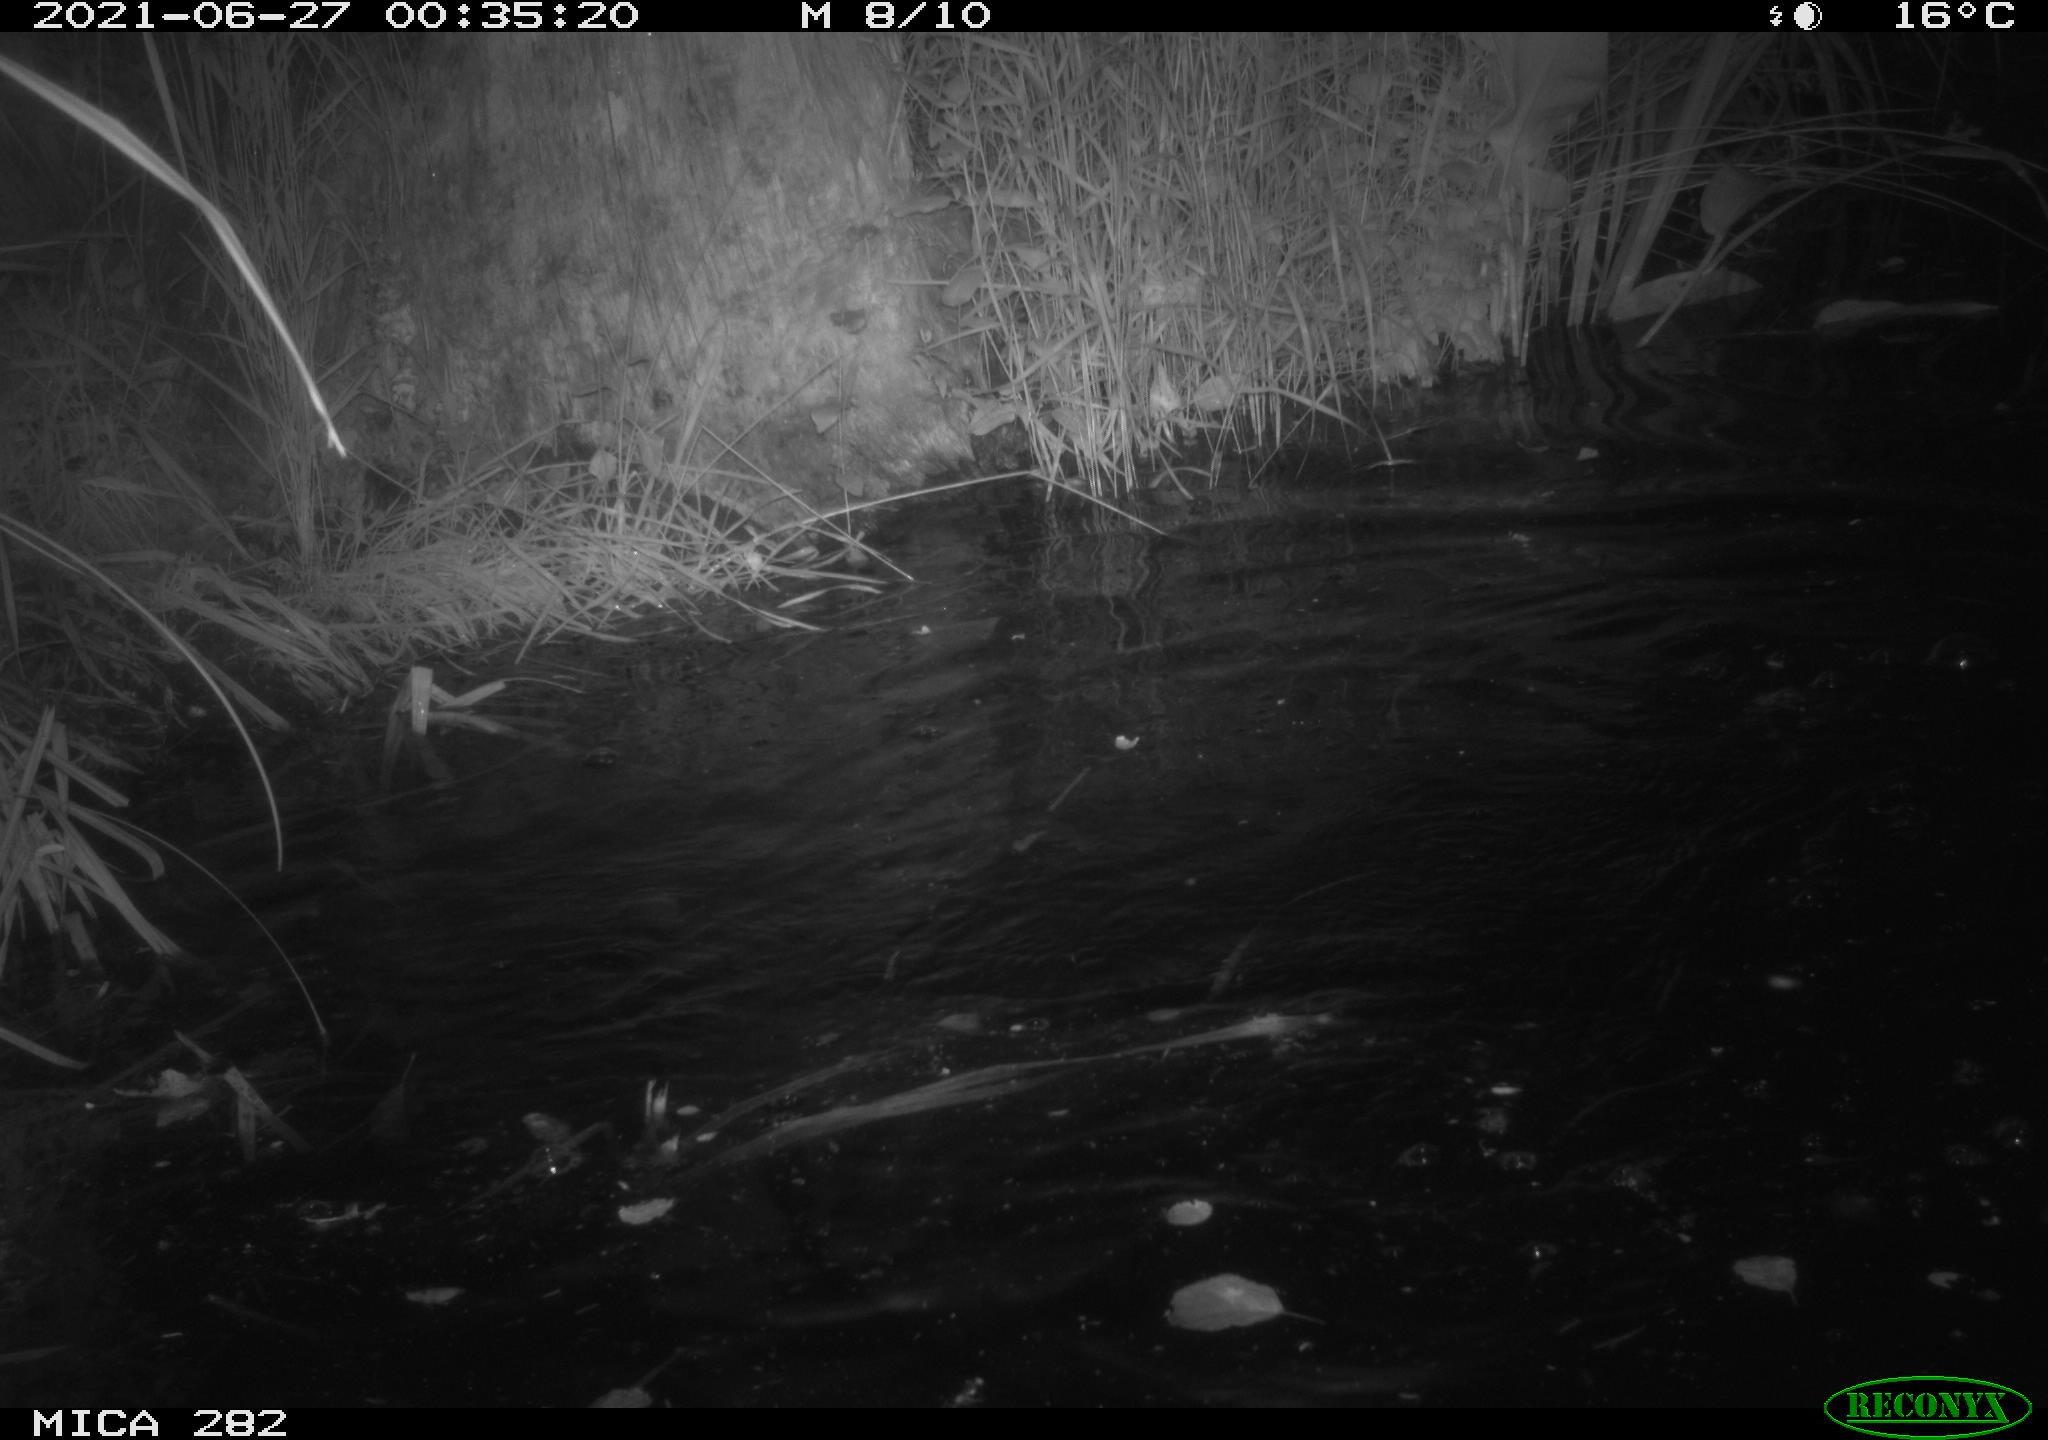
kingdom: Animalia
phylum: Chordata
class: Mammalia
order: Rodentia
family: Castoridae
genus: Castor
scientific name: Castor fiber
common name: Eurasian beaver
